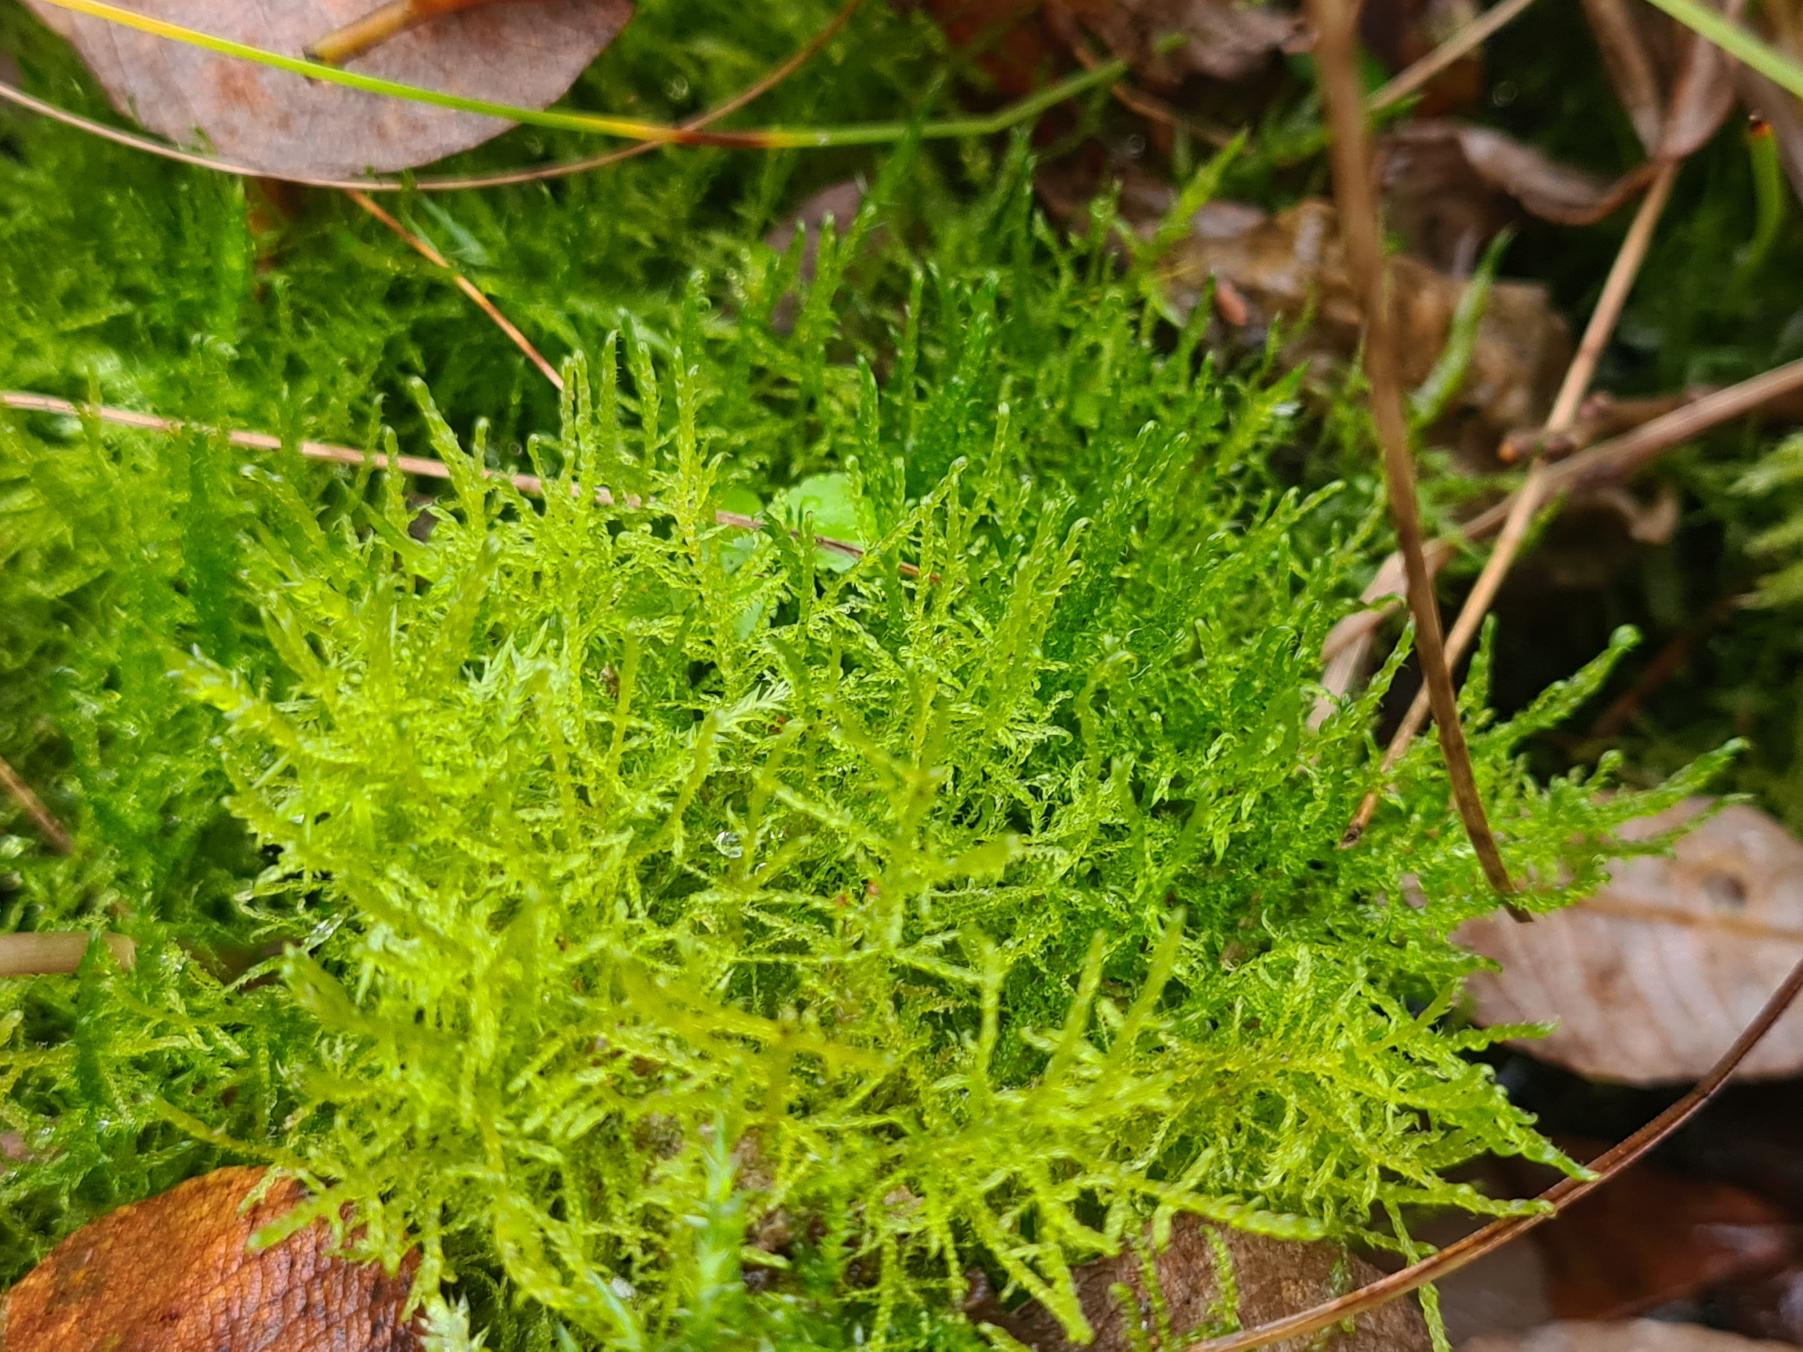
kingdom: Plantae
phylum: Bryophyta
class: Bryopsida
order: Hypnales
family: Amblystegiaceae
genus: Drepanocladus
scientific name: Drepanocladus aduncus
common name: Kær-seglmos
